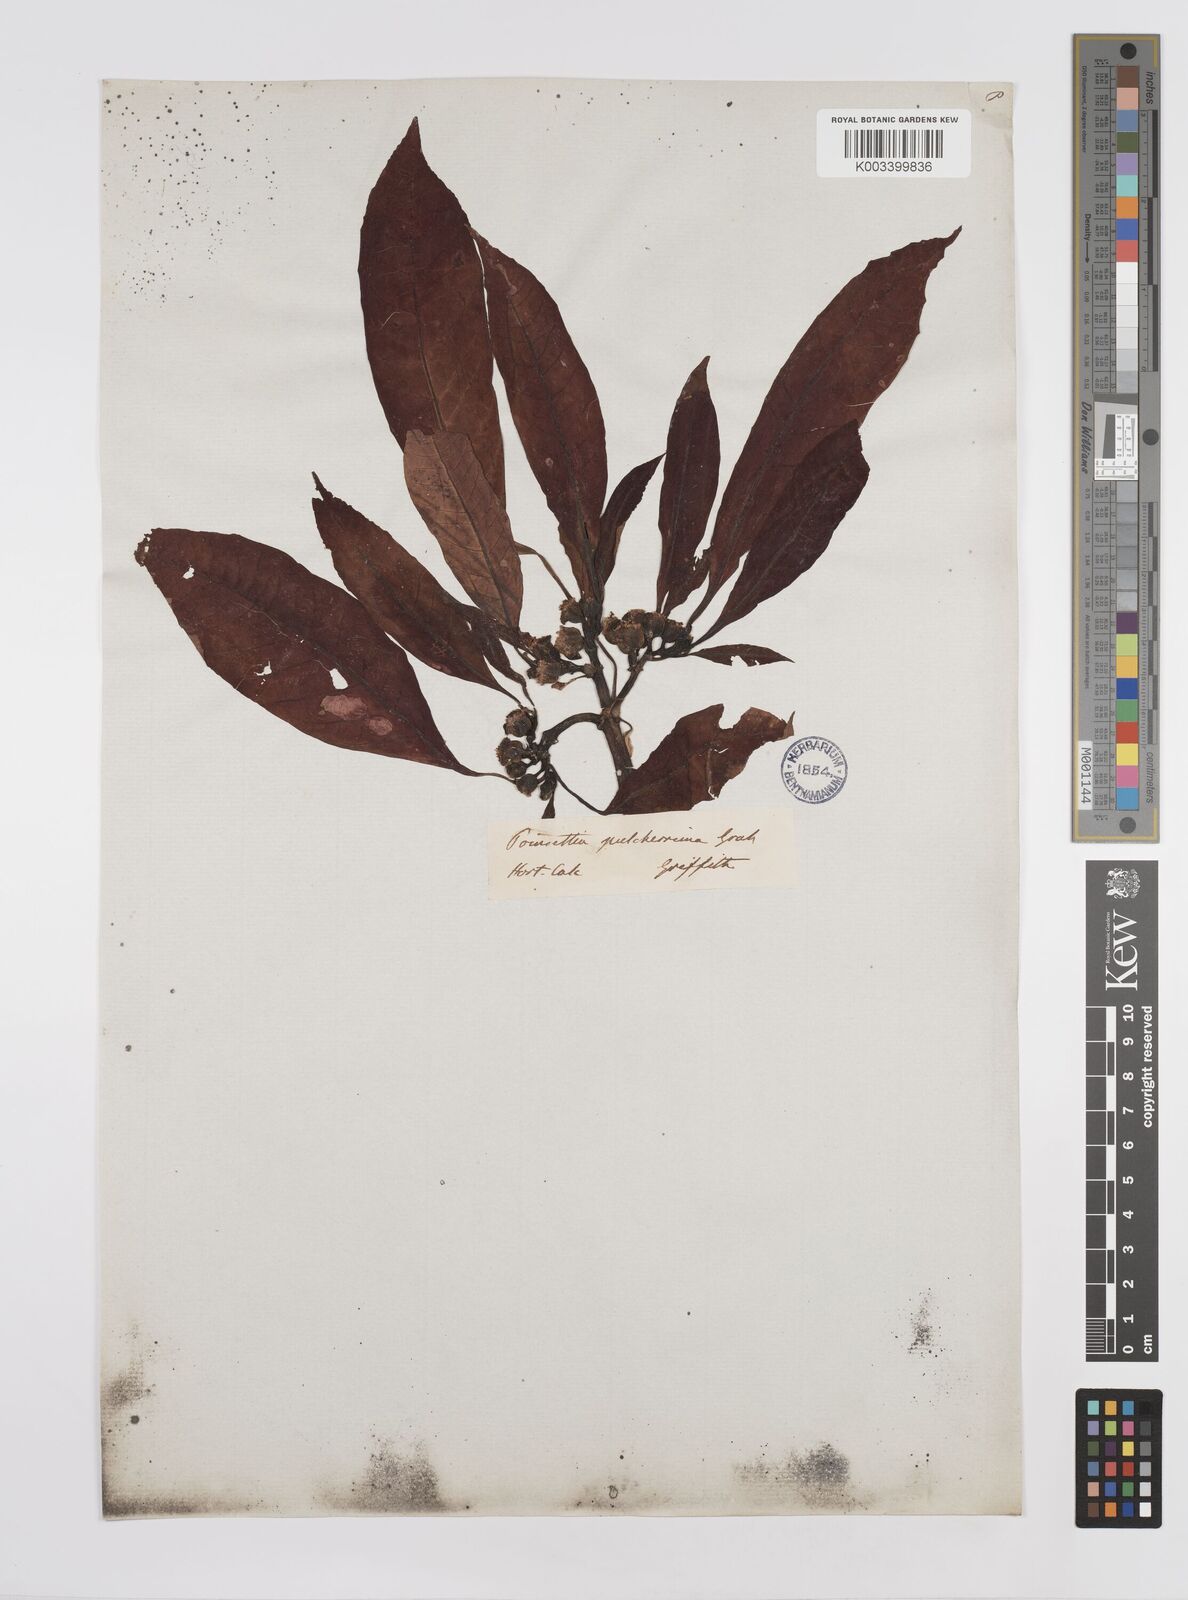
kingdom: Plantae
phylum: Tracheophyta
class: Magnoliopsida
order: Malpighiales
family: Euphorbiaceae
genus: Euphorbia
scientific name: Euphorbia pulcherrima
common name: Christmas-flower
